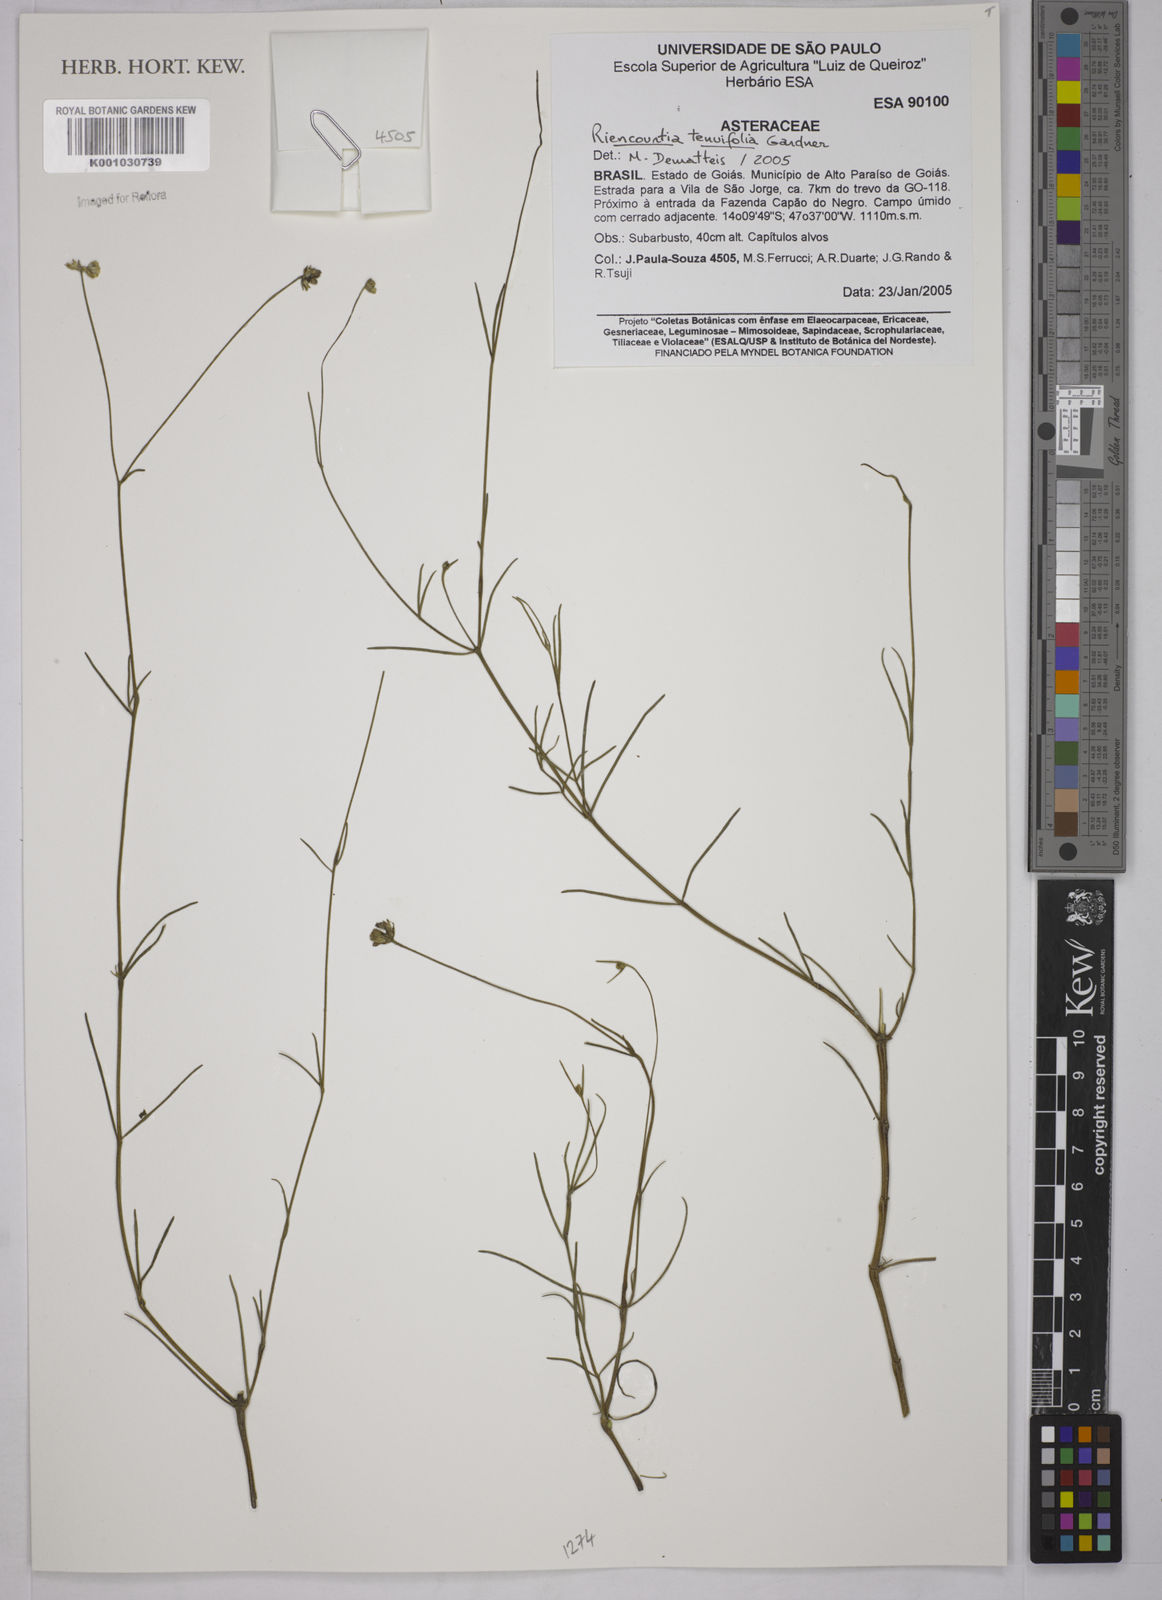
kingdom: Plantae
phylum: Tracheophyta
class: Magnoliopsida
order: Asterales
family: Asteraceae
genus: Riencourtia
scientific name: Riencourtia tenuifolia
